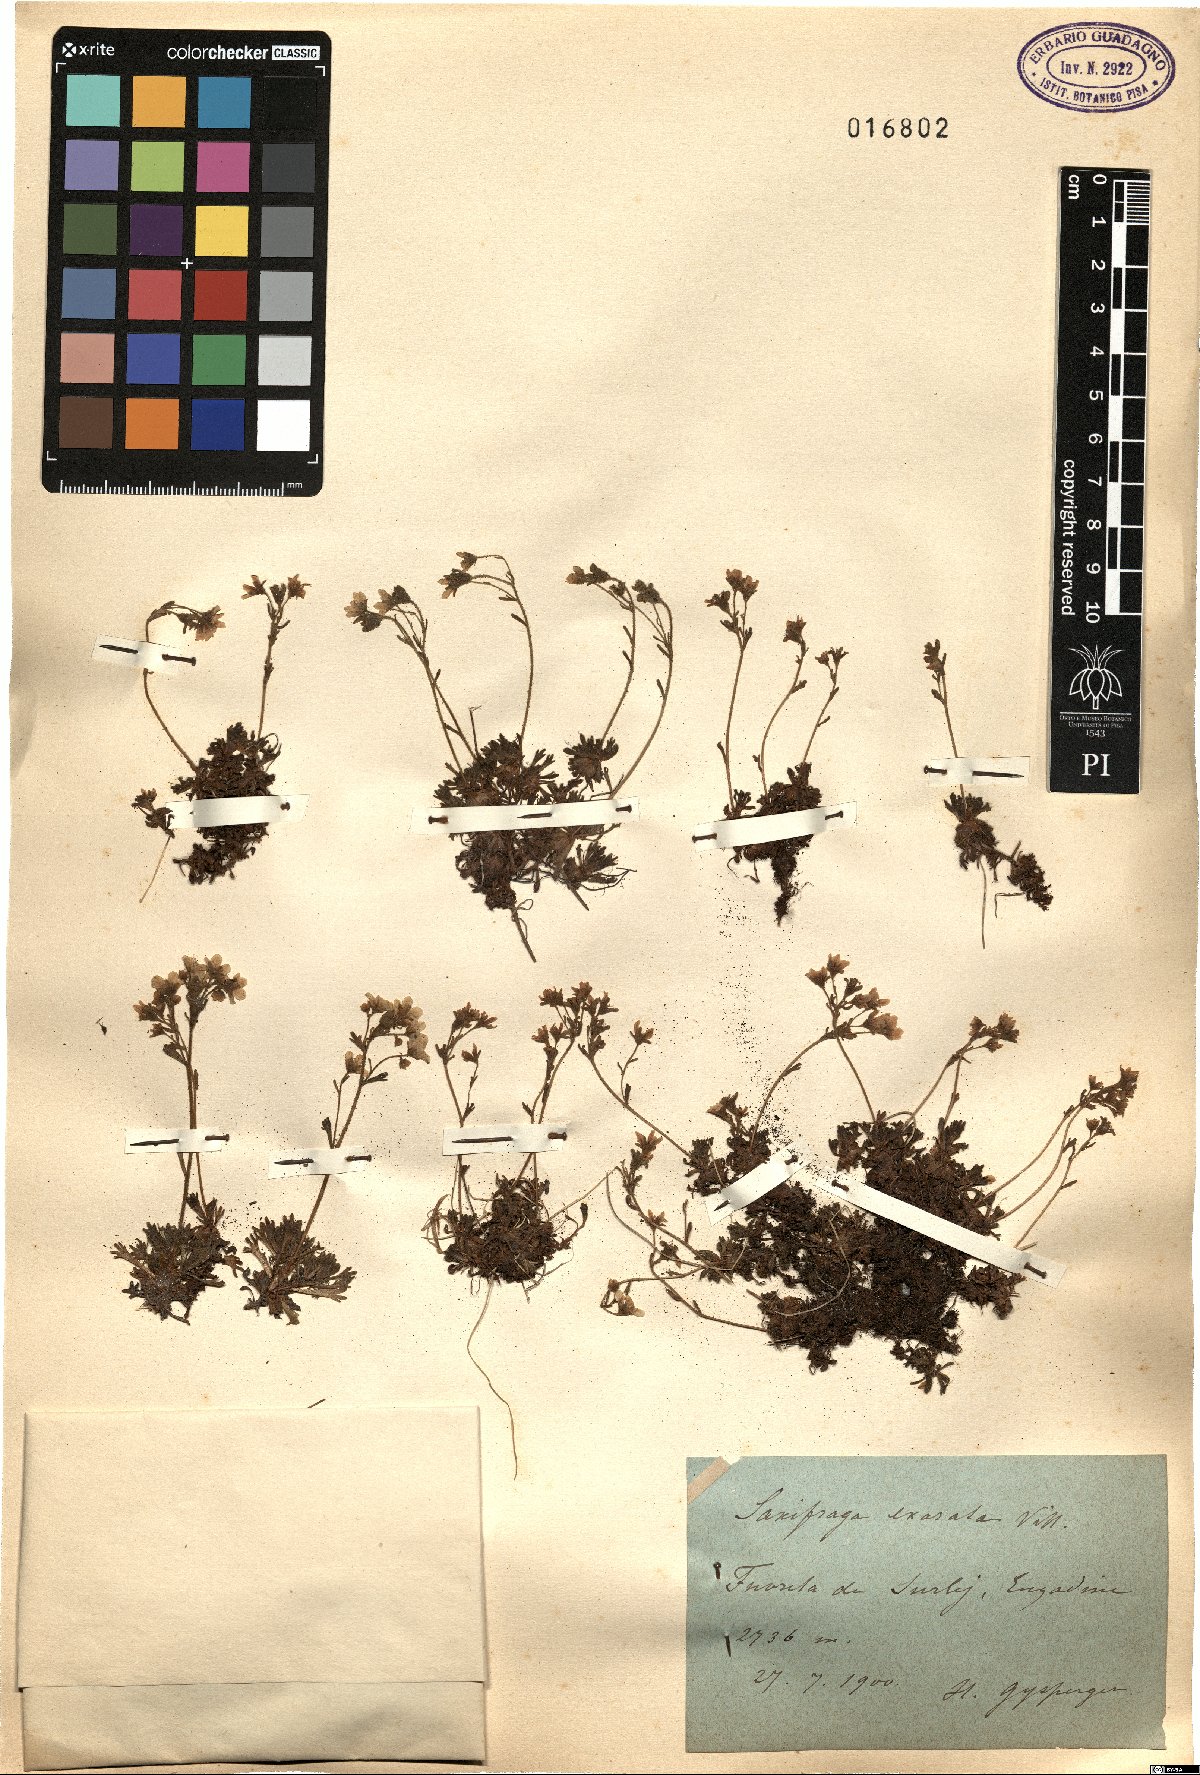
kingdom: Plantae
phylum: Tracheophyta
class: Magnoliopsida
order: Saxifragales
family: Saxifragaceae
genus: Saxifraga
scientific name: Saxifraga exarata
